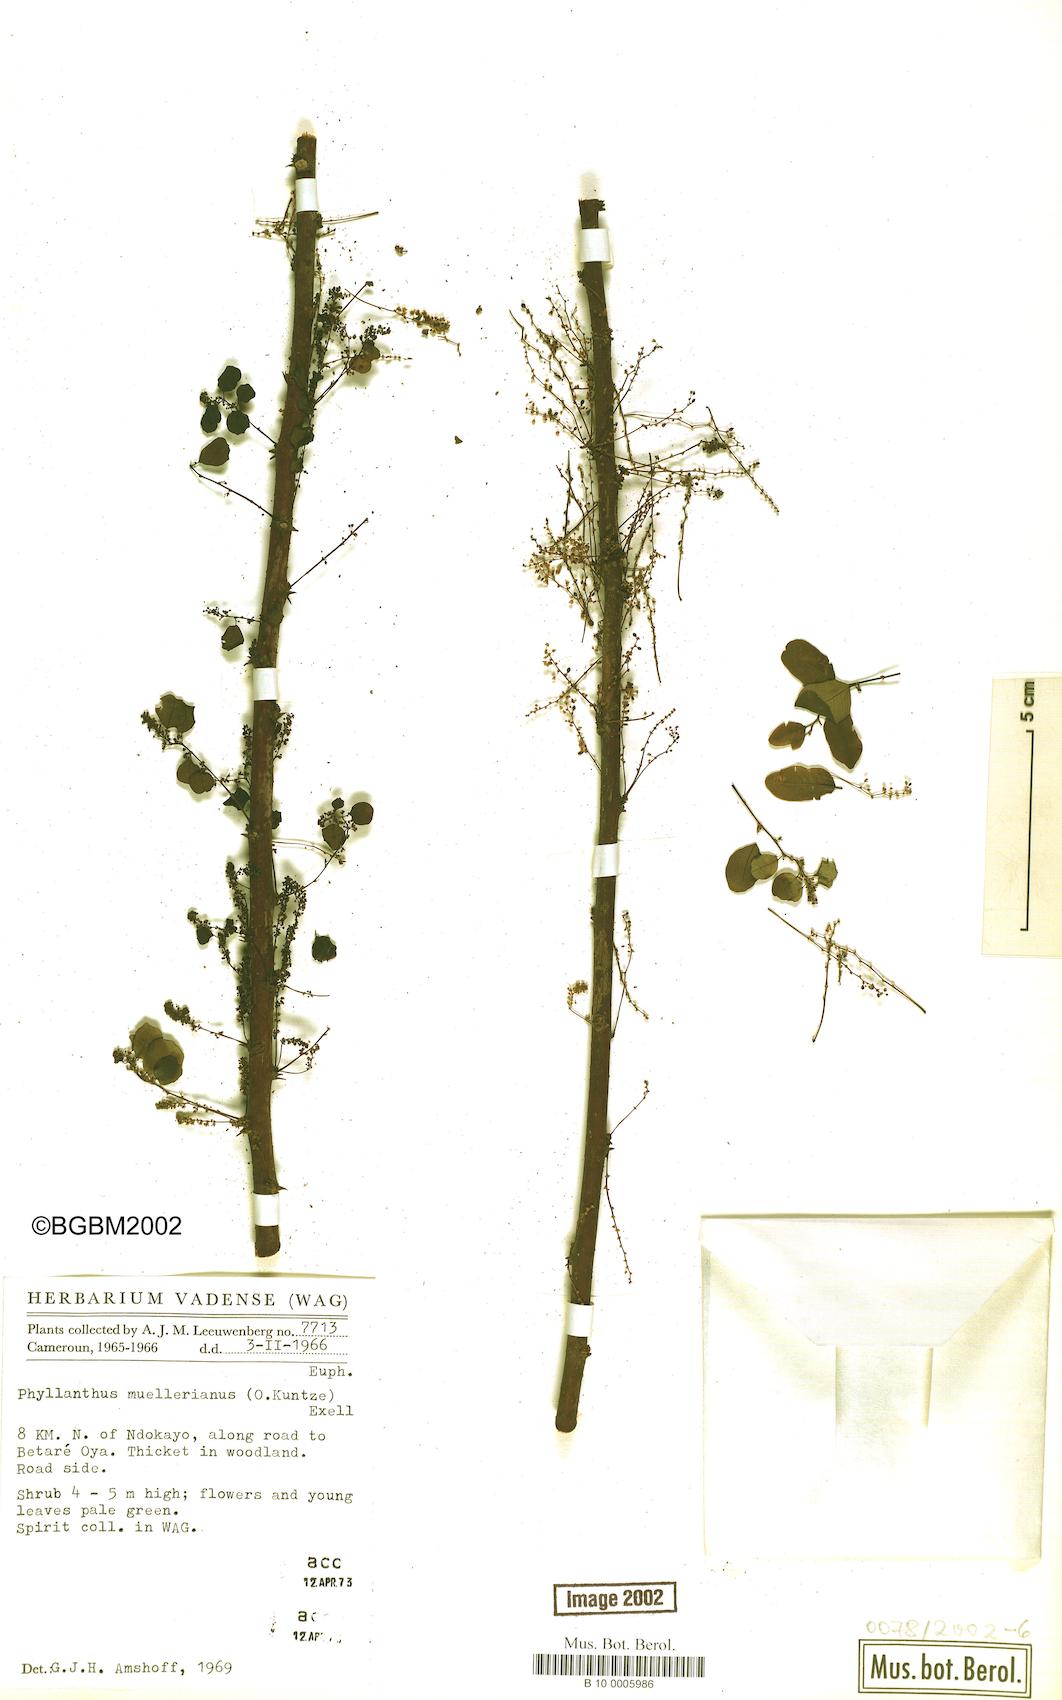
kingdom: Plantae
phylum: Tracheophyta
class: Magnoliopsida
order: Malpighiales
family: Phyllanthaceae
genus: Phyllanthus
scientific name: Phyllanthus muellerianus
